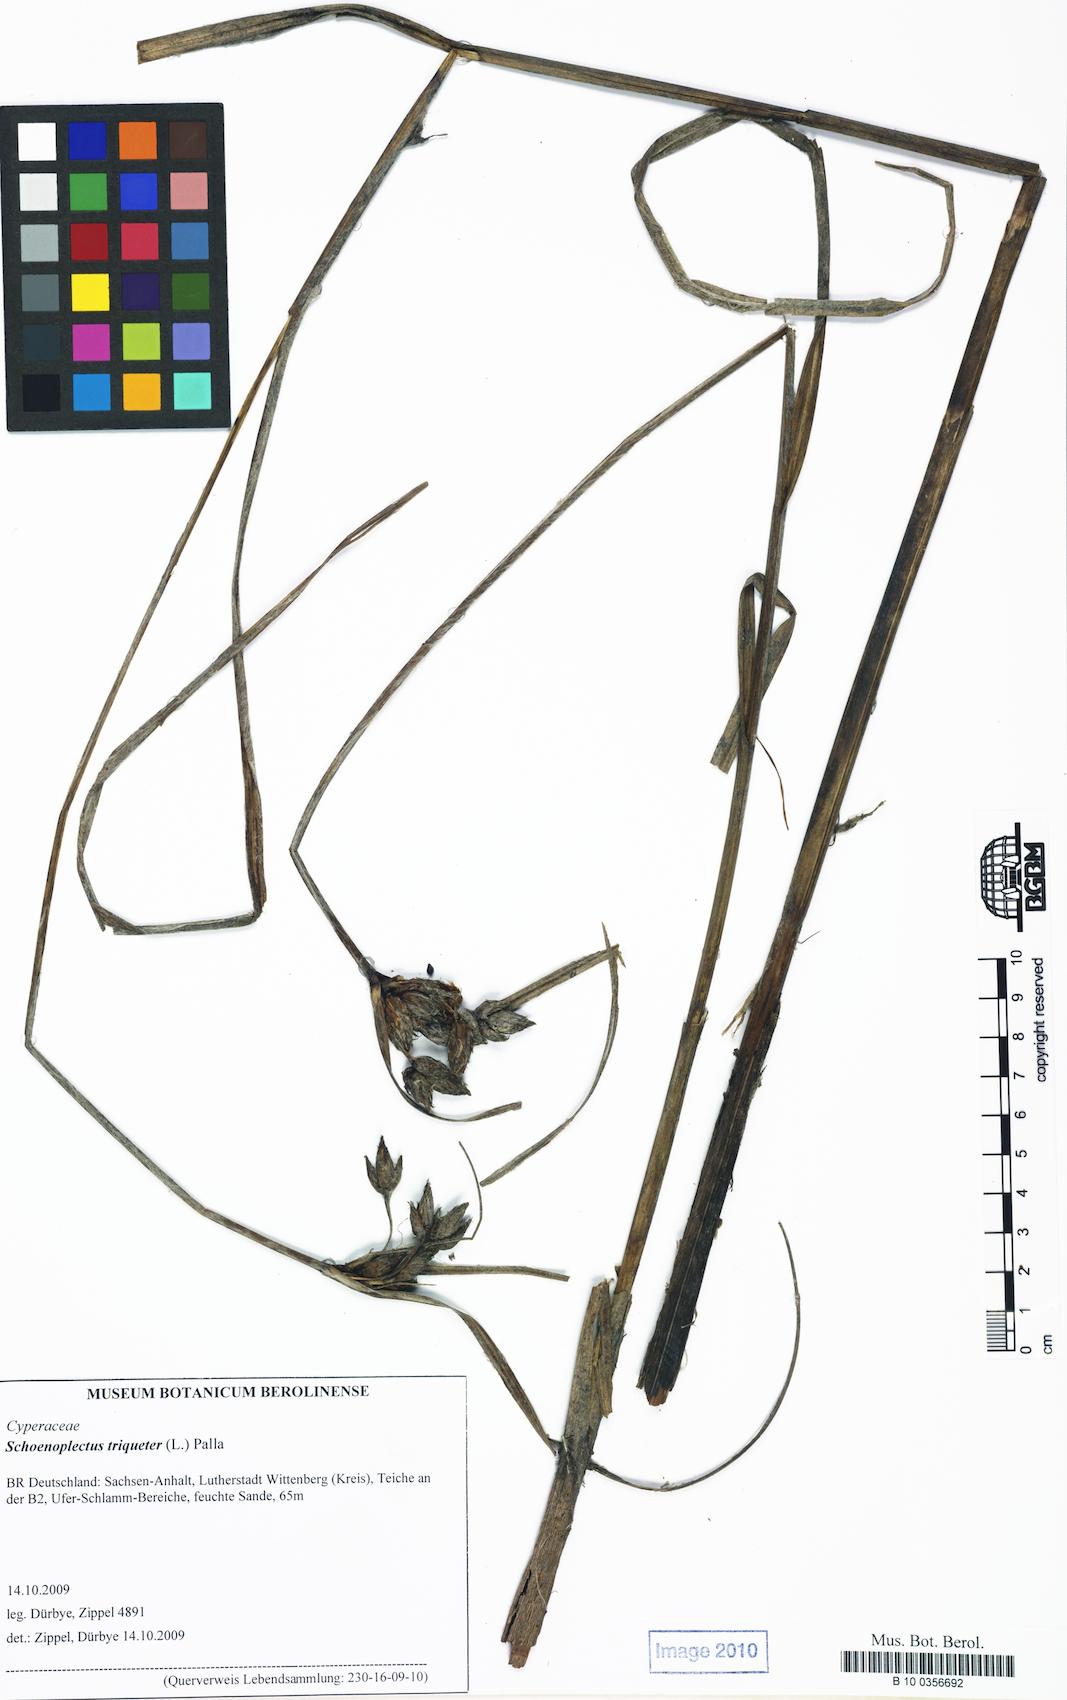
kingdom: Plantae
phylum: Tracheophyta
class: Liliopsida
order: Poales
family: Cyperaceae
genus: Bolboschoenus
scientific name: Bolboschoenus maritimus
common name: Sea club-rush
